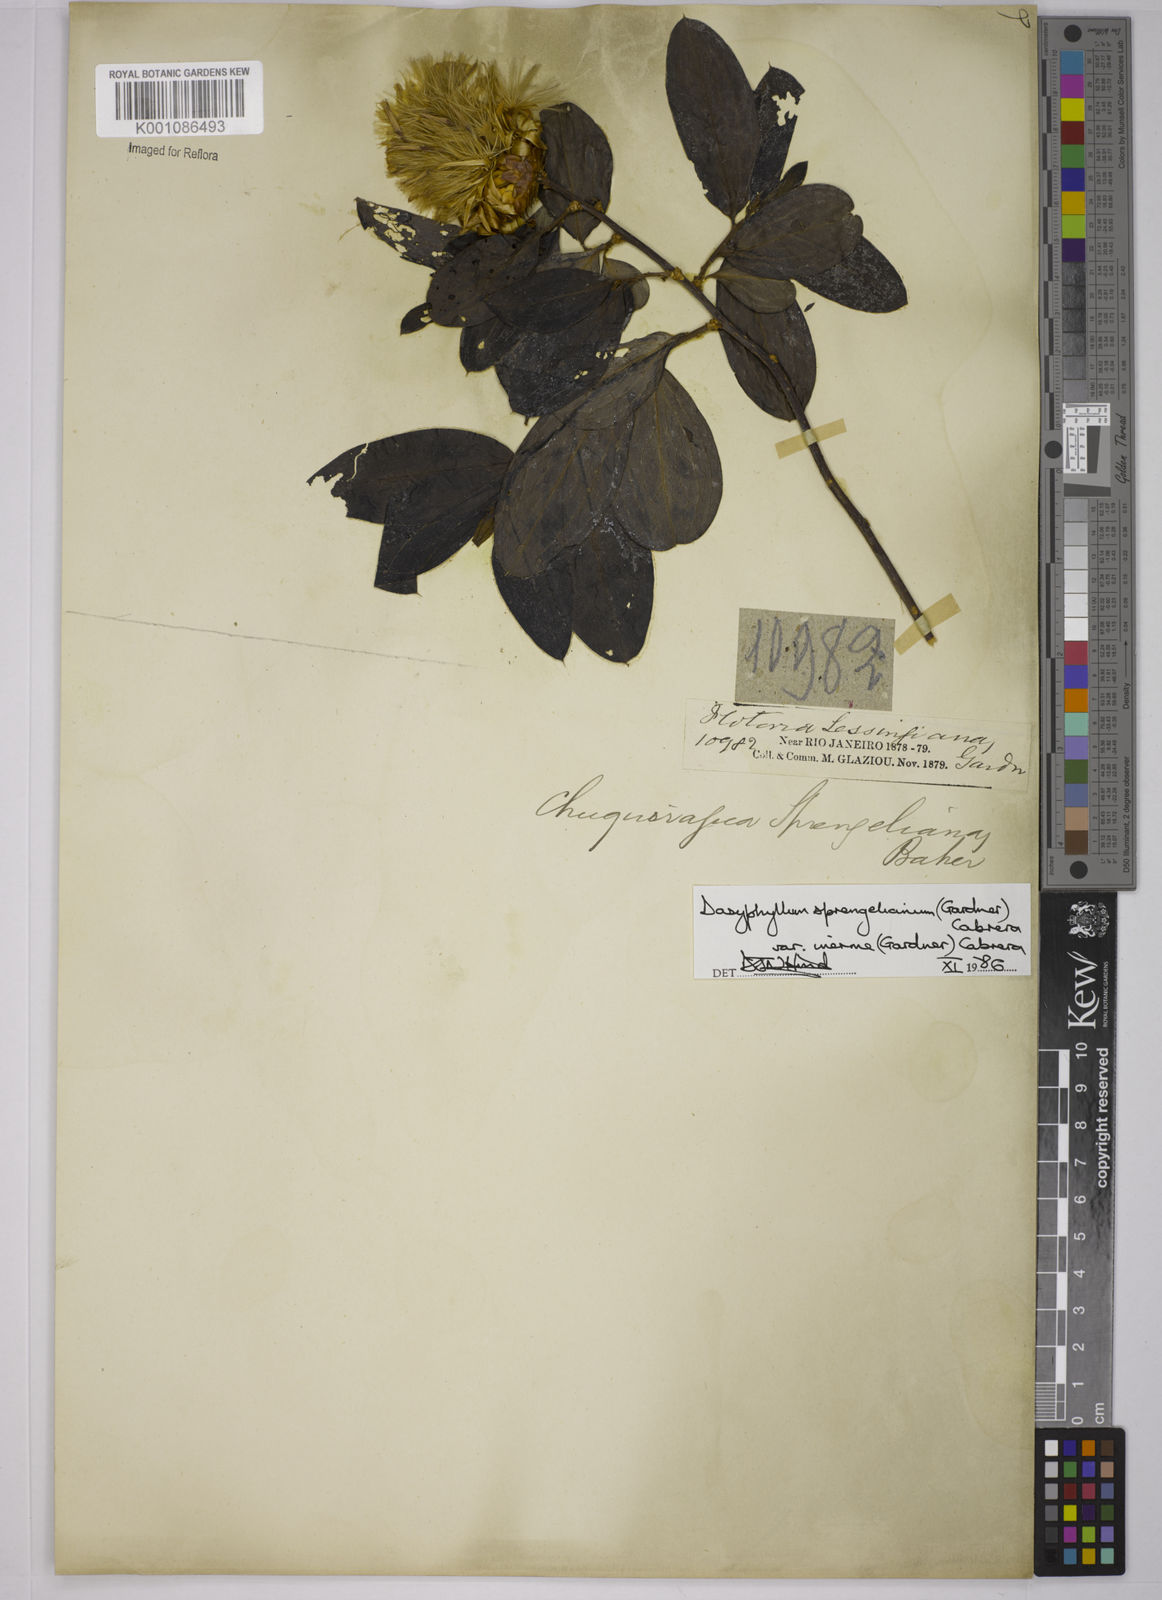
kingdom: Plantae
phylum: Tracheophyta
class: Magnoliopsida
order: Asterales
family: Asteraceae
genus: Dasyphyllum
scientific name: Dasyphyllum sprengelianum
